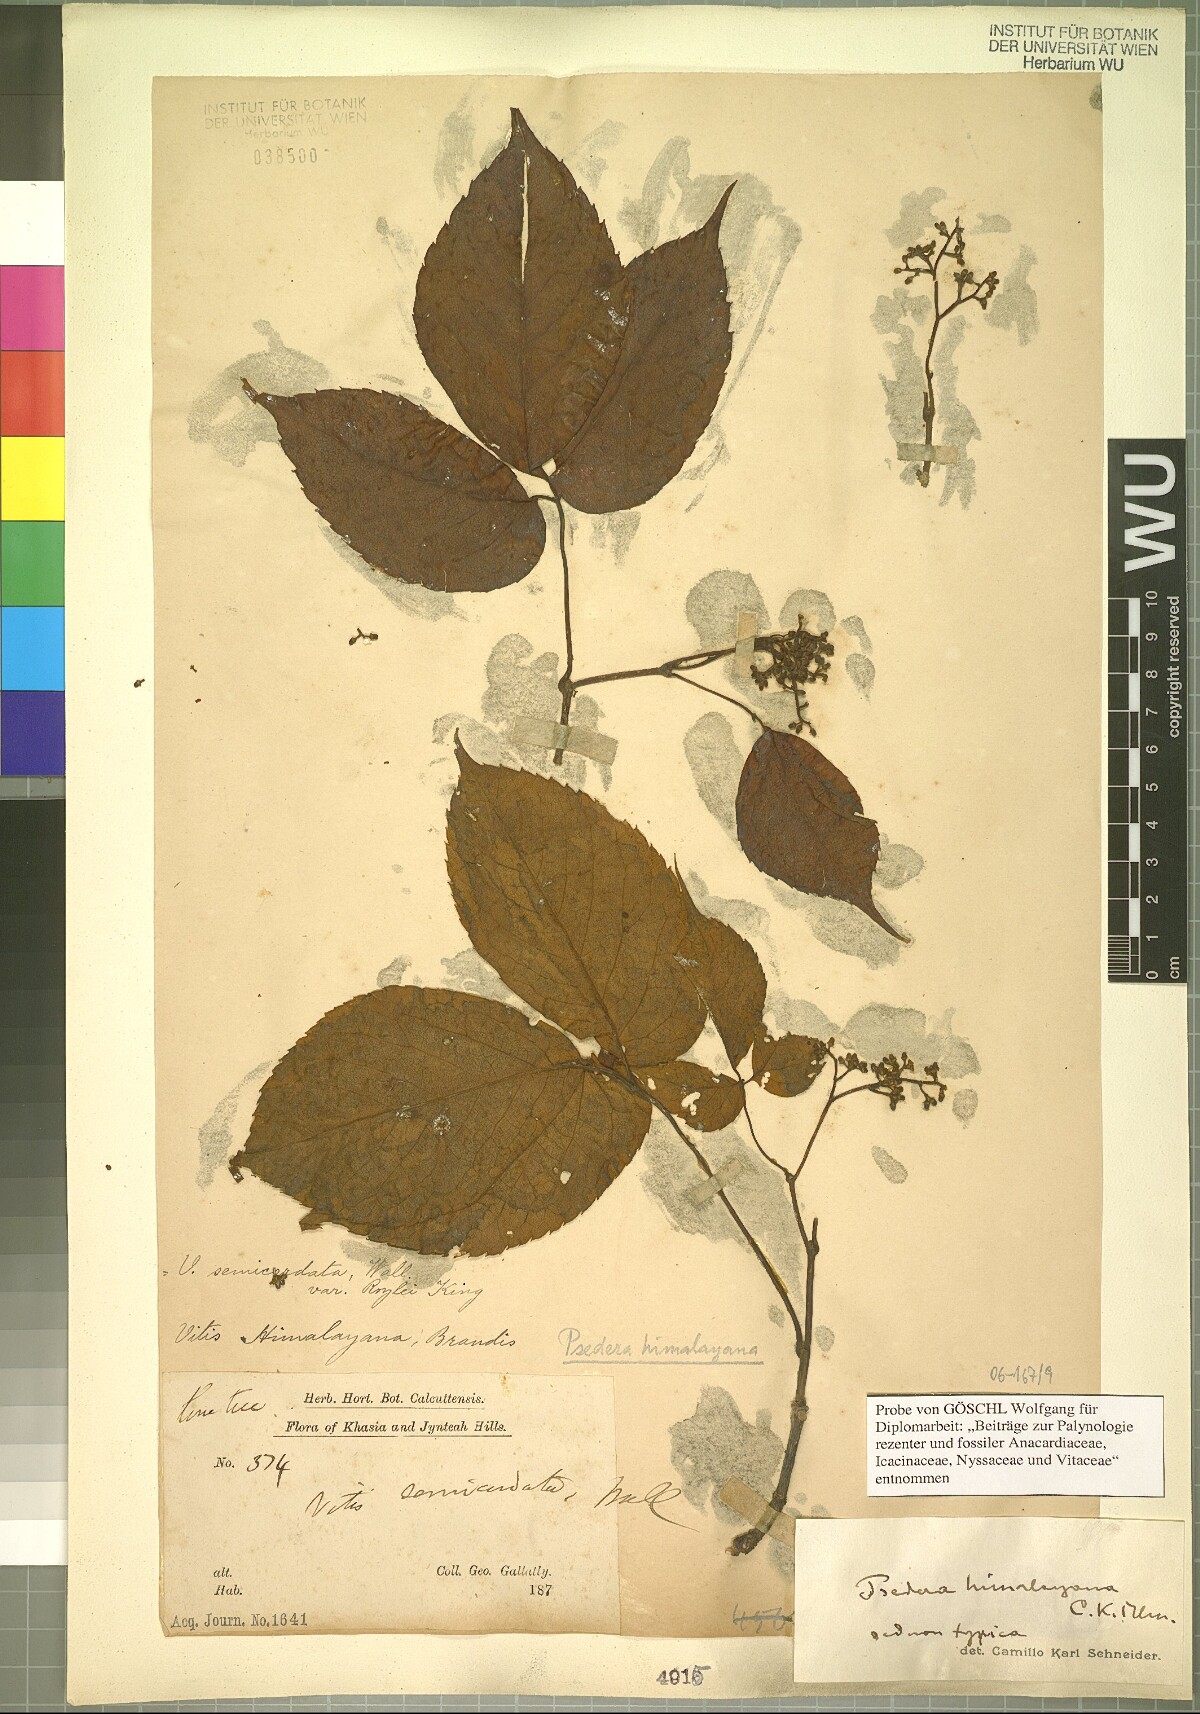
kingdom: Plantae
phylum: Tracheophyta
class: Magnoliopsida
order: Vitales
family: Vitaceae
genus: Parthenocissus
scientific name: Parthenocissus semicordata
